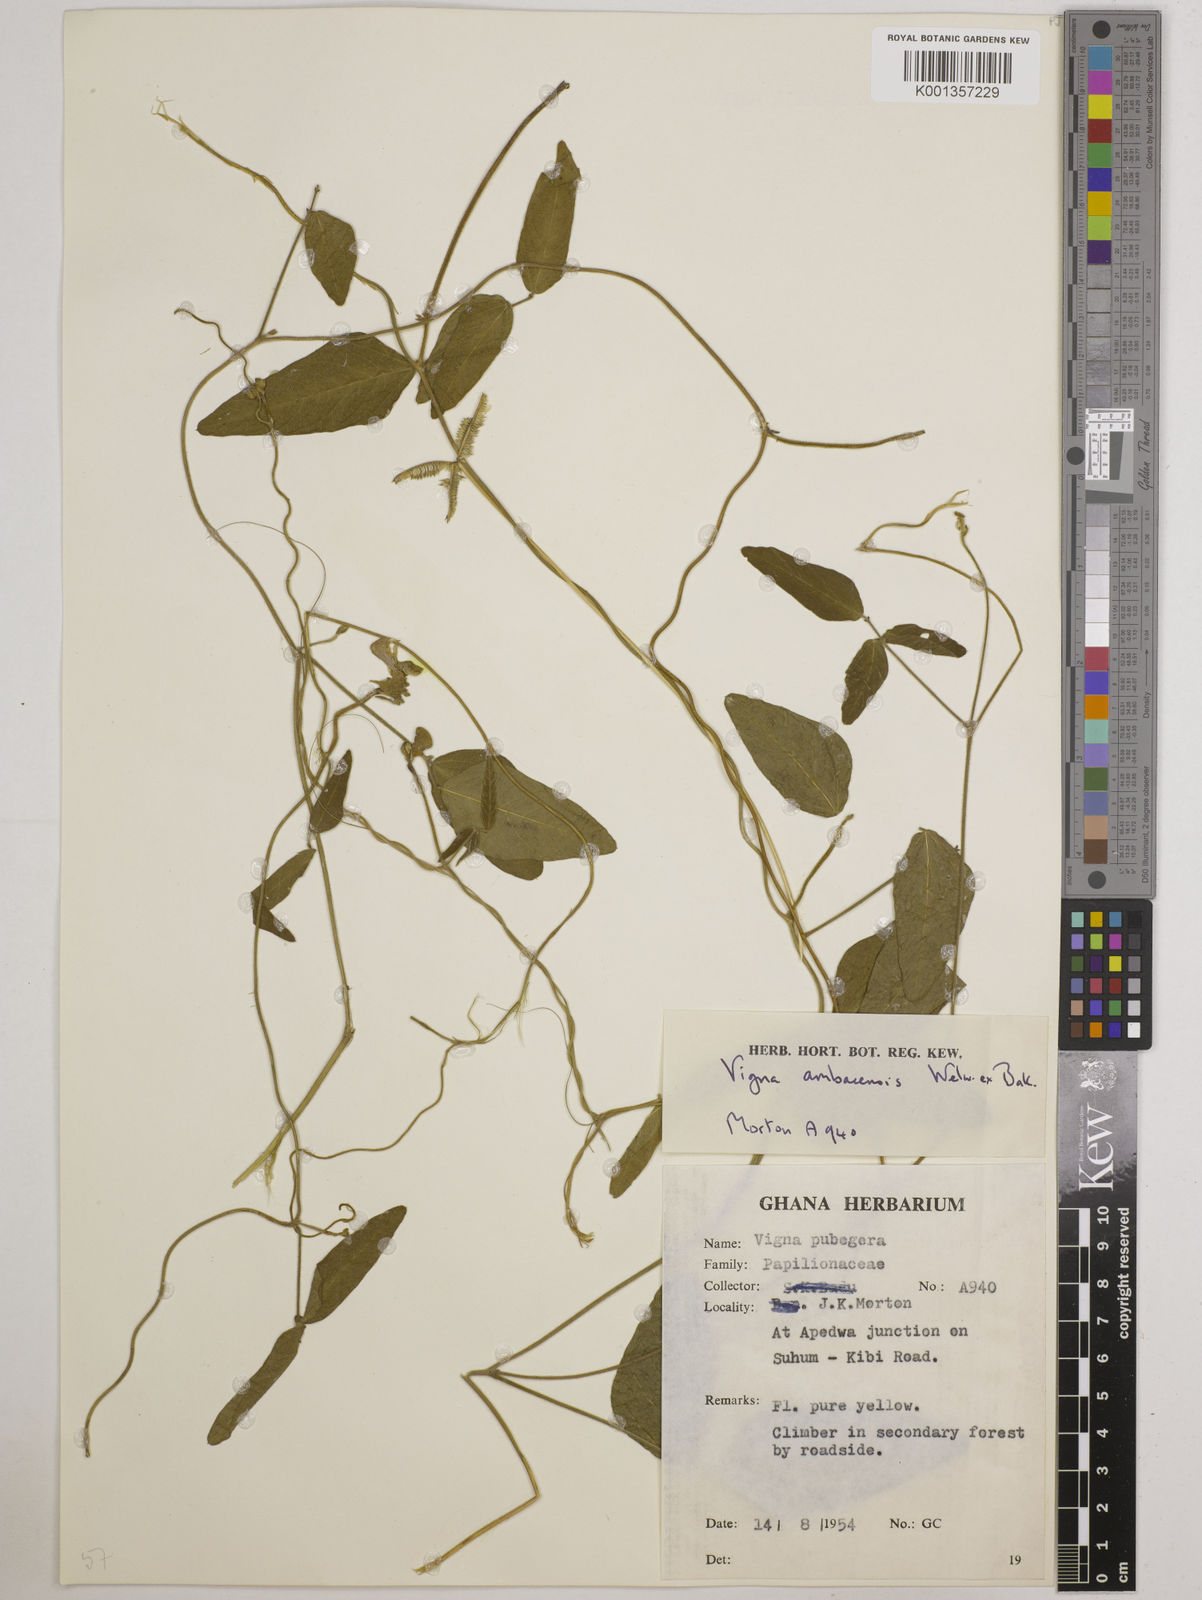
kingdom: Plantae
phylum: Tracheophyta
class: Magnoliopsida
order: Fabales
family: Fabaceae
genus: Vigna
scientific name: Vigna ambacensis
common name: Tsarkiyan zomo
